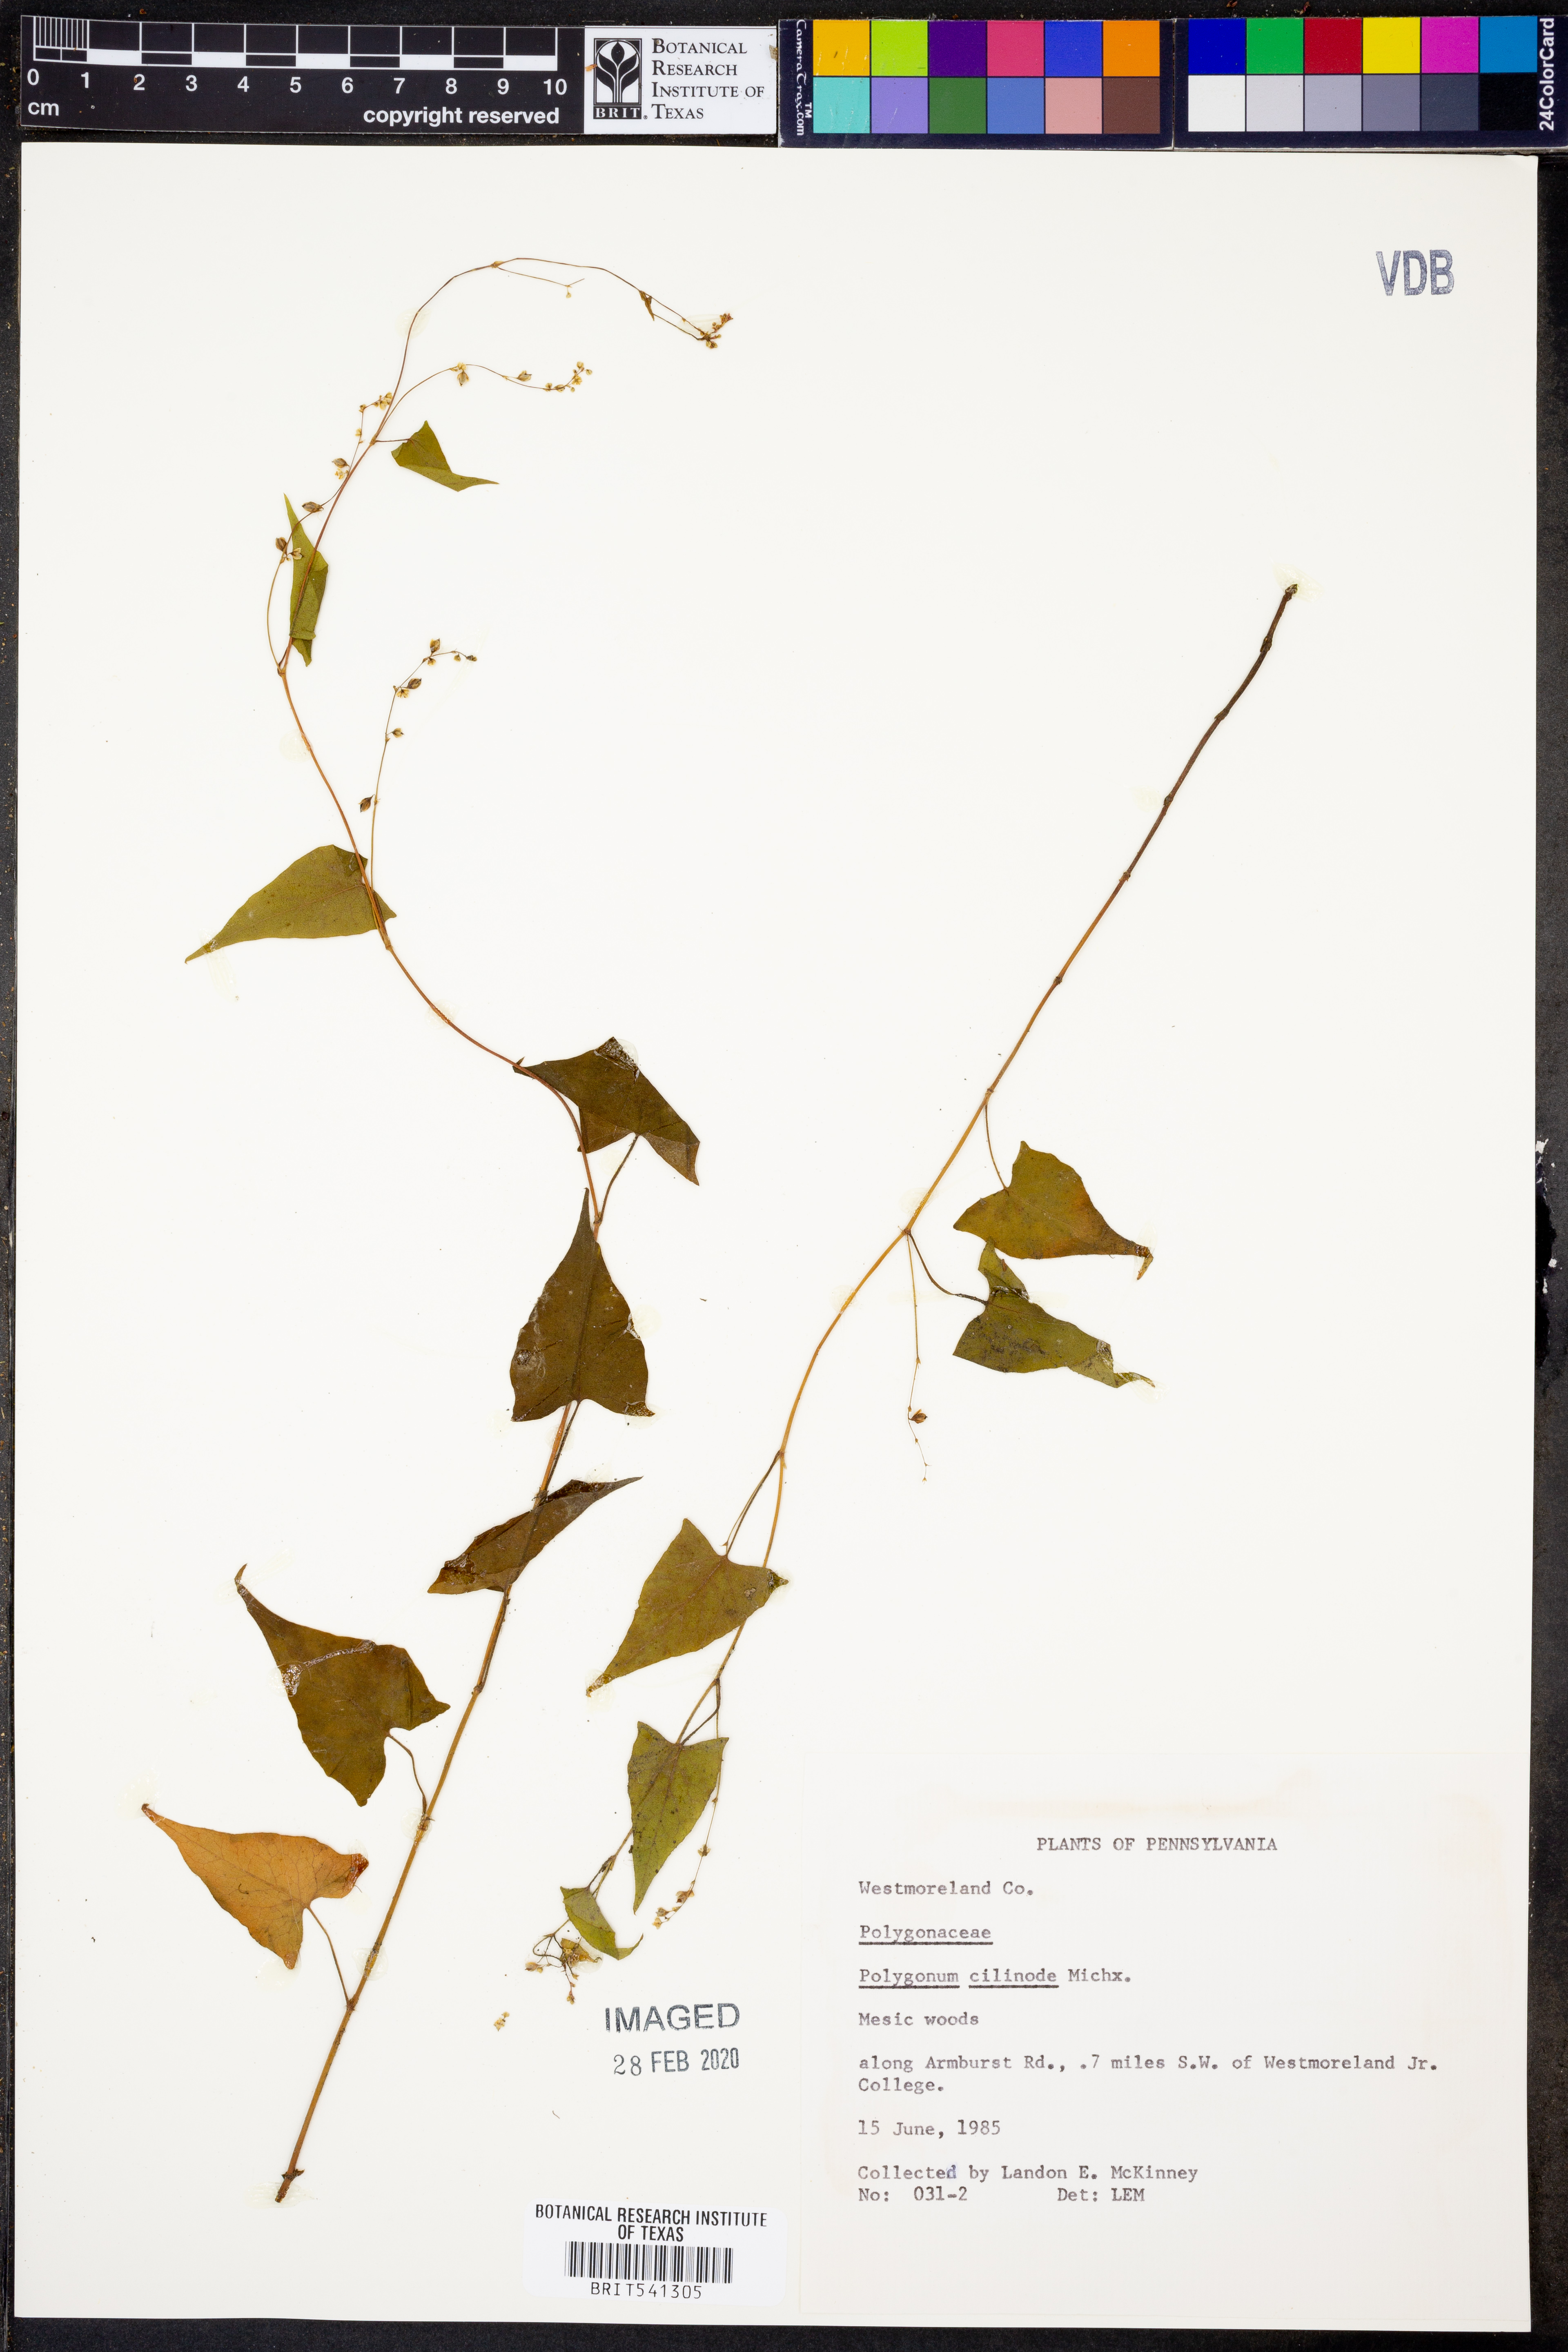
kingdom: Plantae
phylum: Tracheophyta
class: Magnoliopsida
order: Caryophyllales
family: Polygonaceae
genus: Parogonum
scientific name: Parogonum ciliinode
